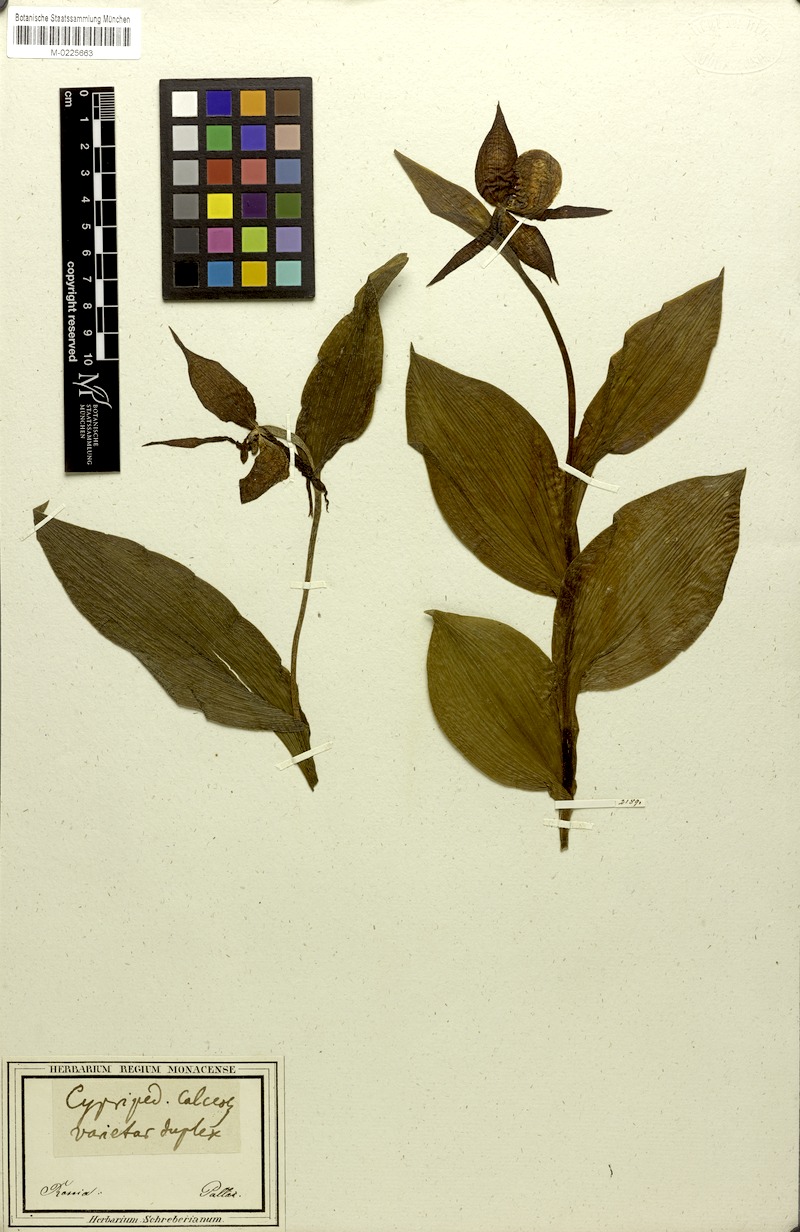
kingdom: Plantae
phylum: Tracheophyta
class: Liliopsida
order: Asparagales
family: Orchidaceae
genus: Cypripedium
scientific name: Cypripedium calceolus
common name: Lady's-slipper
